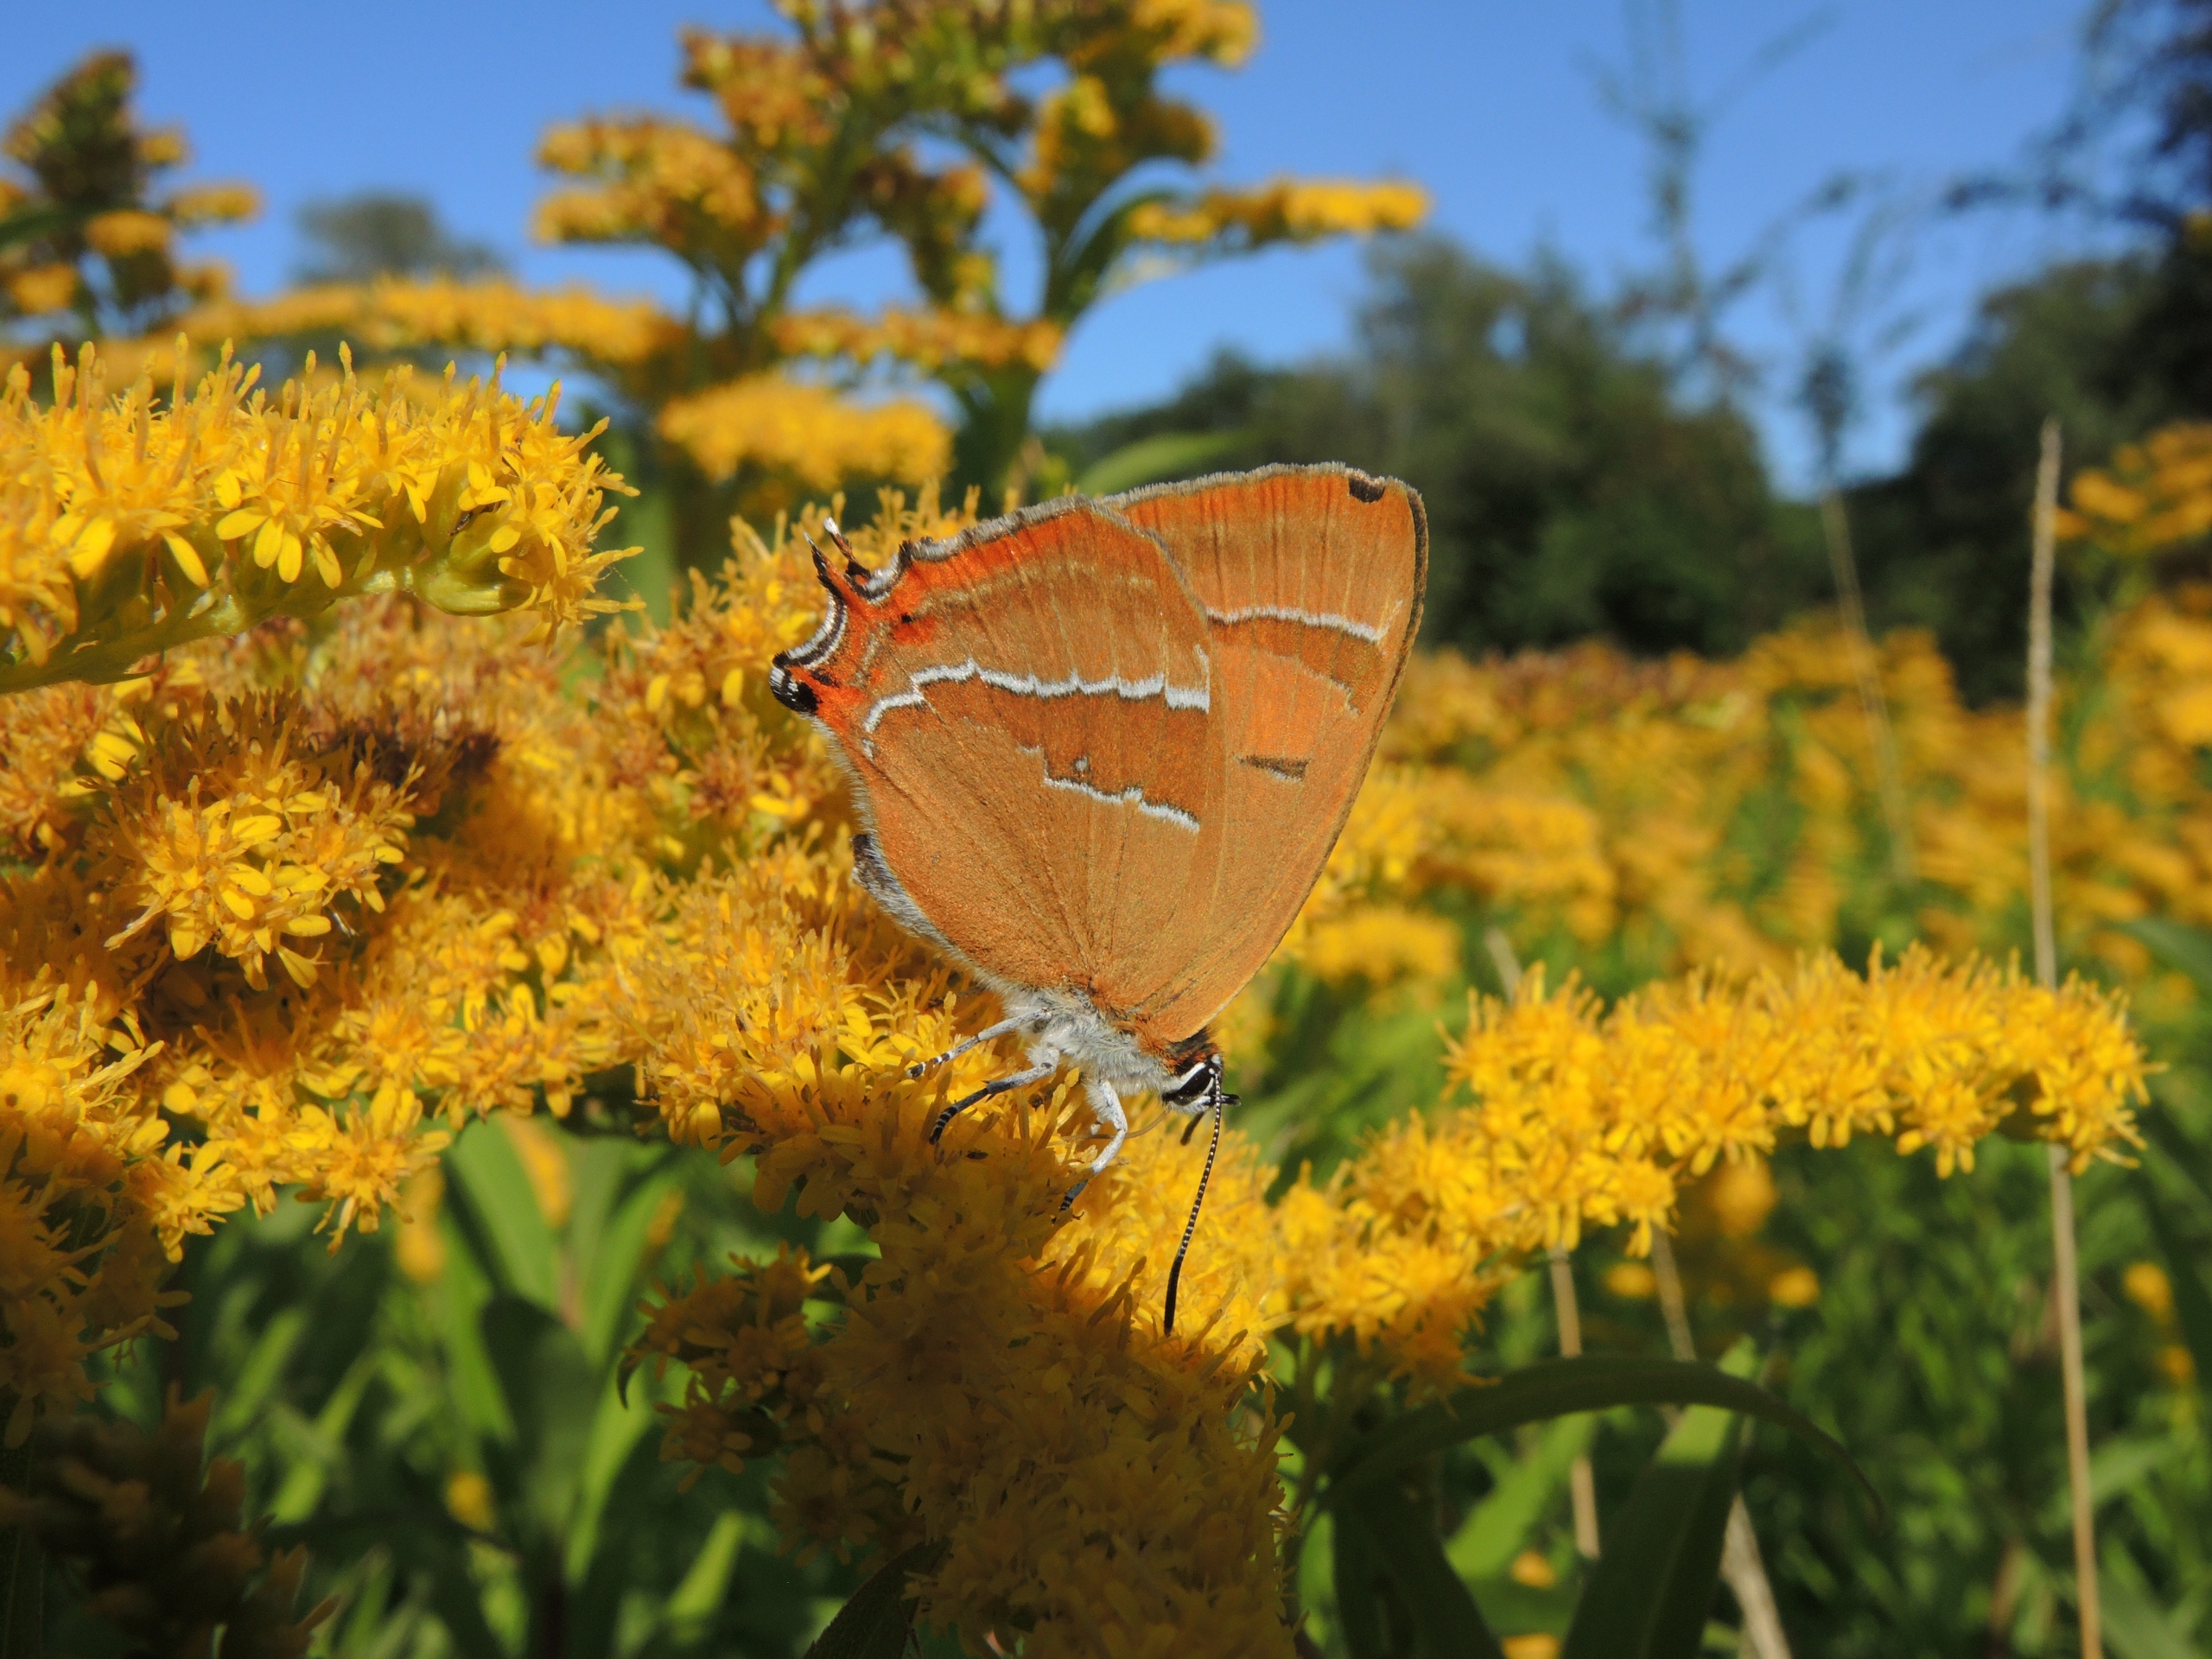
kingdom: Animalia
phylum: Arthropoda
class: Insecta
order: Lepidoptera
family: Lycaenidae
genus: Thecla
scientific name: Thecla betulae
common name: Guldhale
